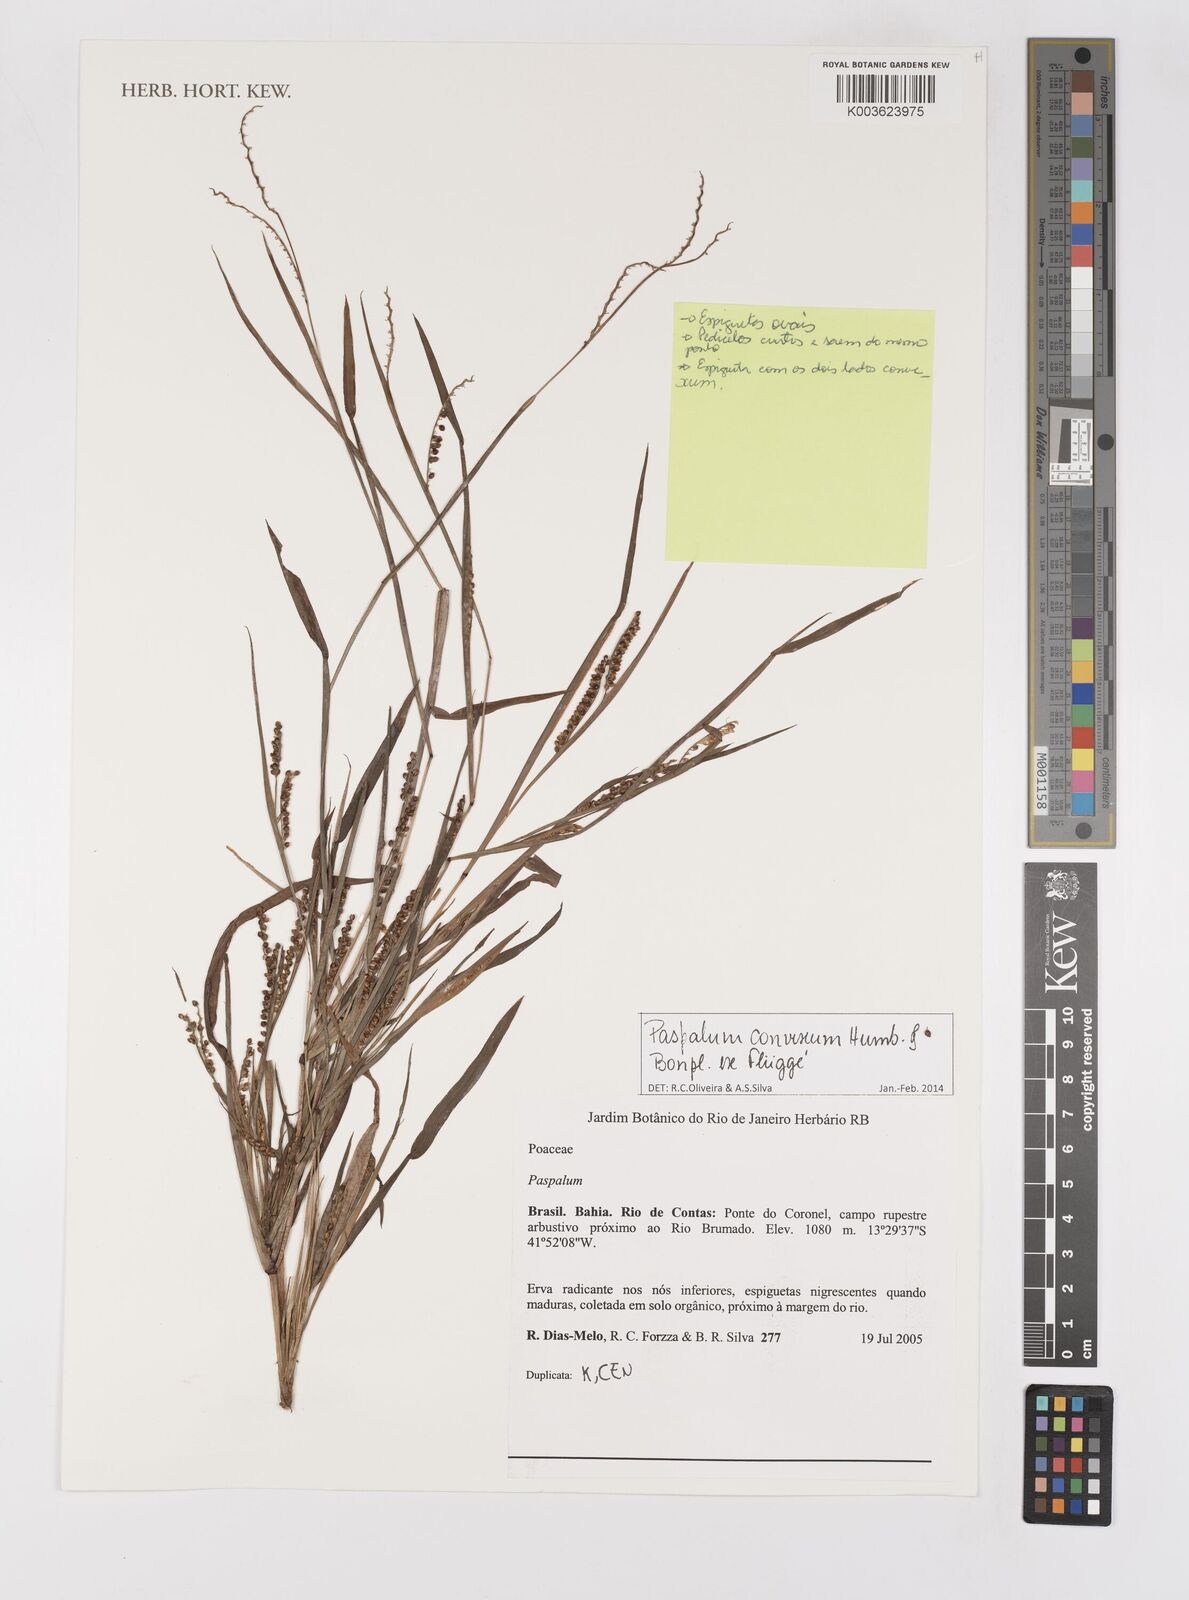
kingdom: Plantae
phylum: Tracheophyta
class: Liliopsida
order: Poales
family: Poaceae
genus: Paspalum
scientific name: Paspalum convexum
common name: Latin american crowngrass
